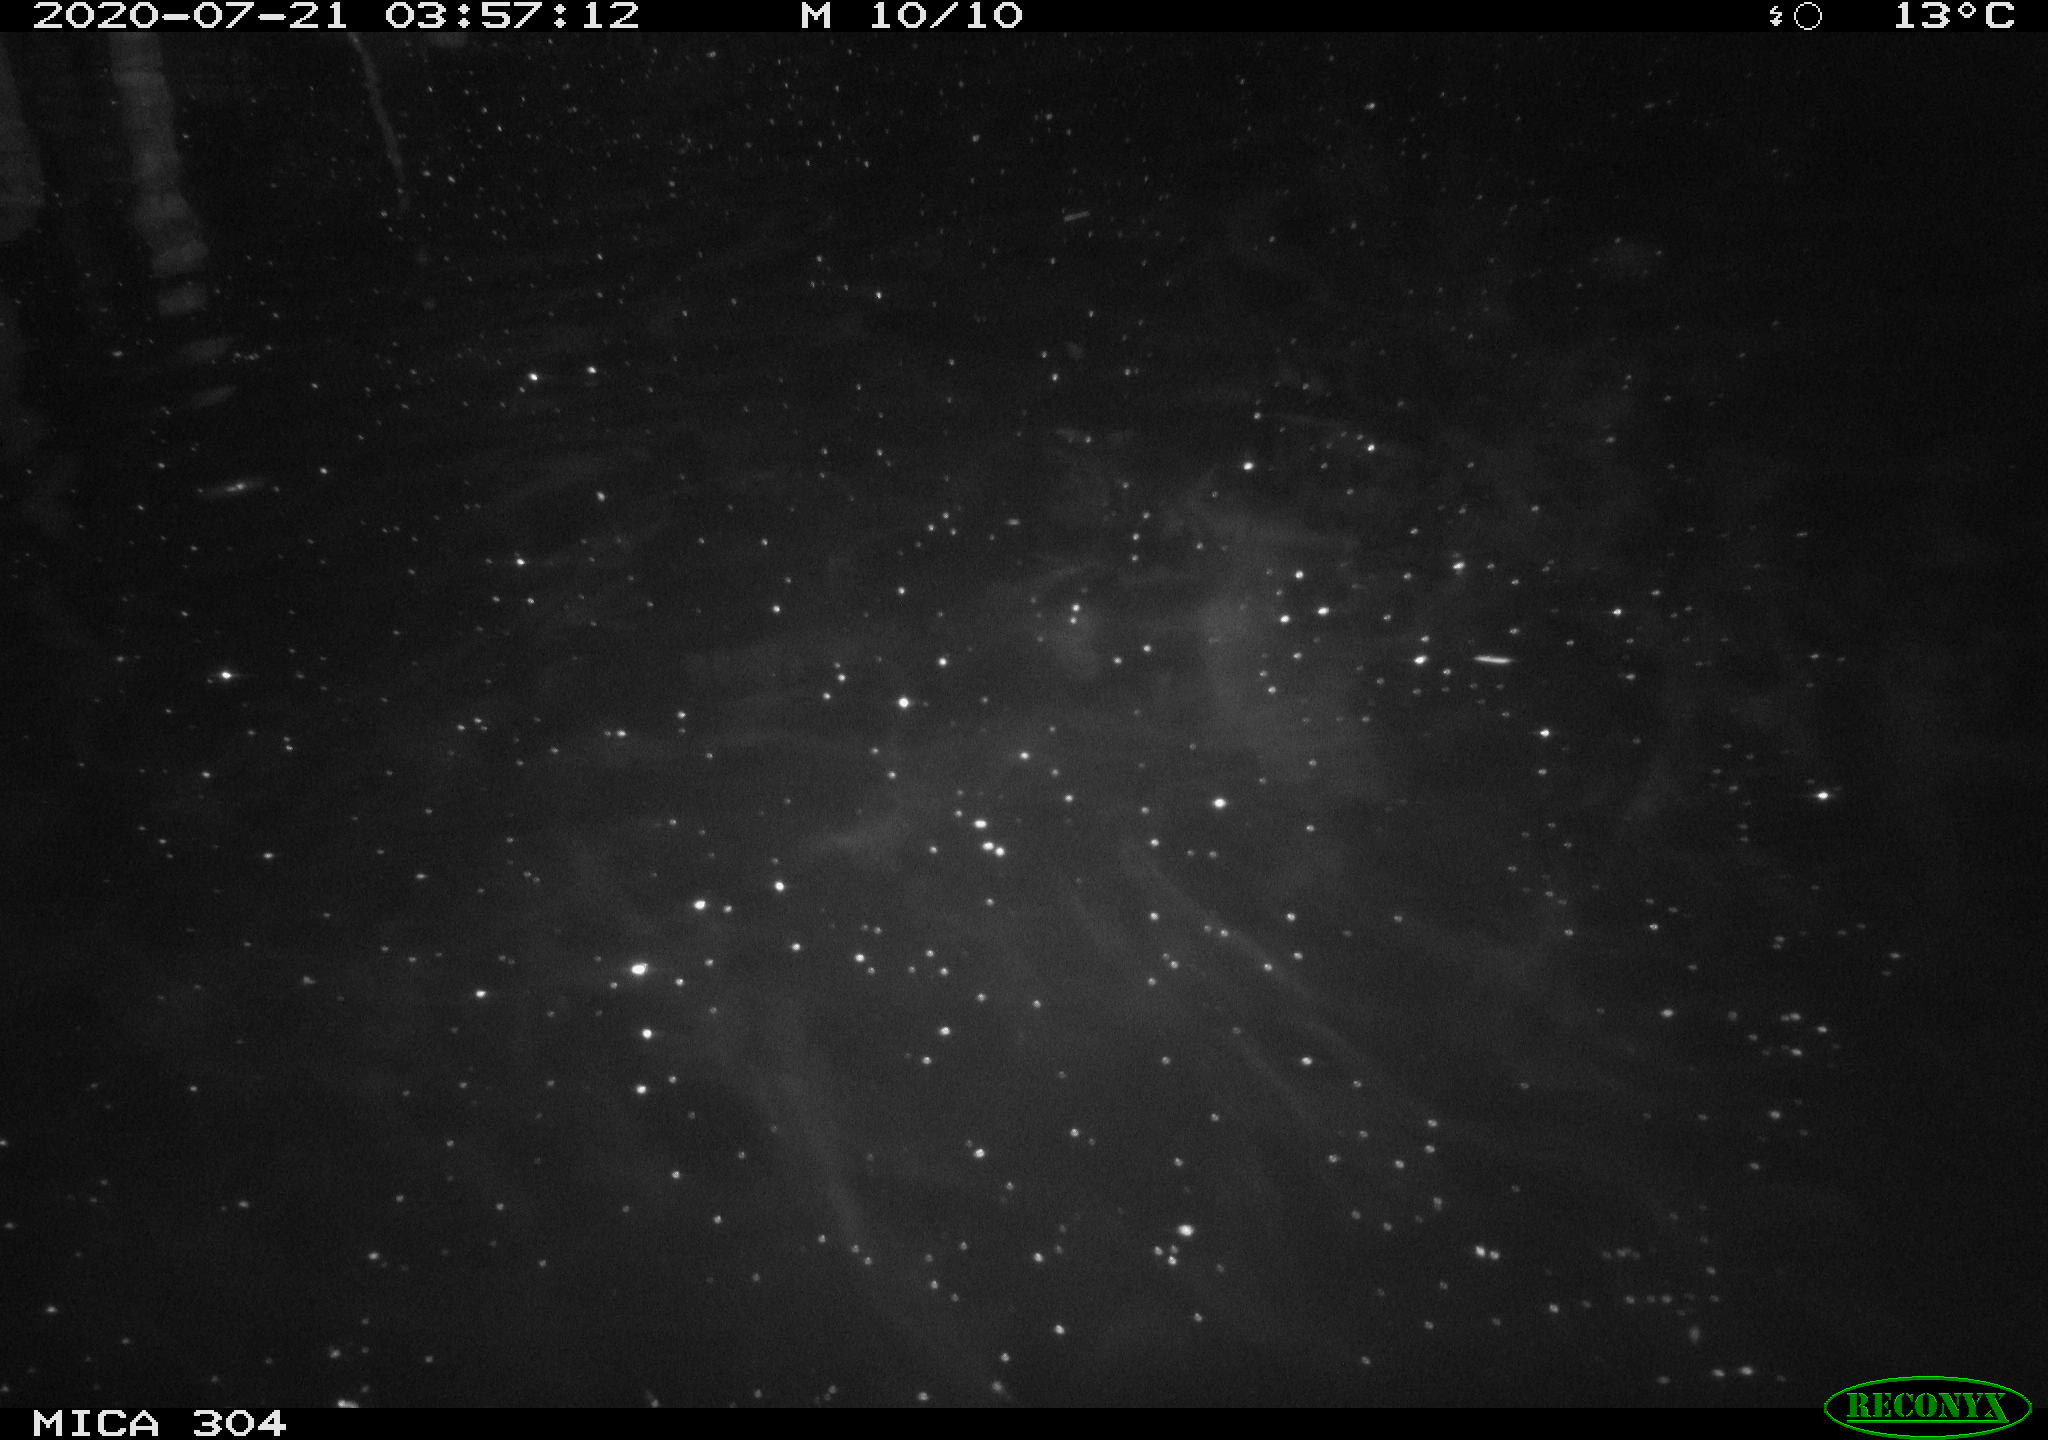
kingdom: Animalia
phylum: Chordata
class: Mammalia
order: Rodentia
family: Cricetidae
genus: Ondatra
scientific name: Ondatra zibethicus
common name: Muskrat
